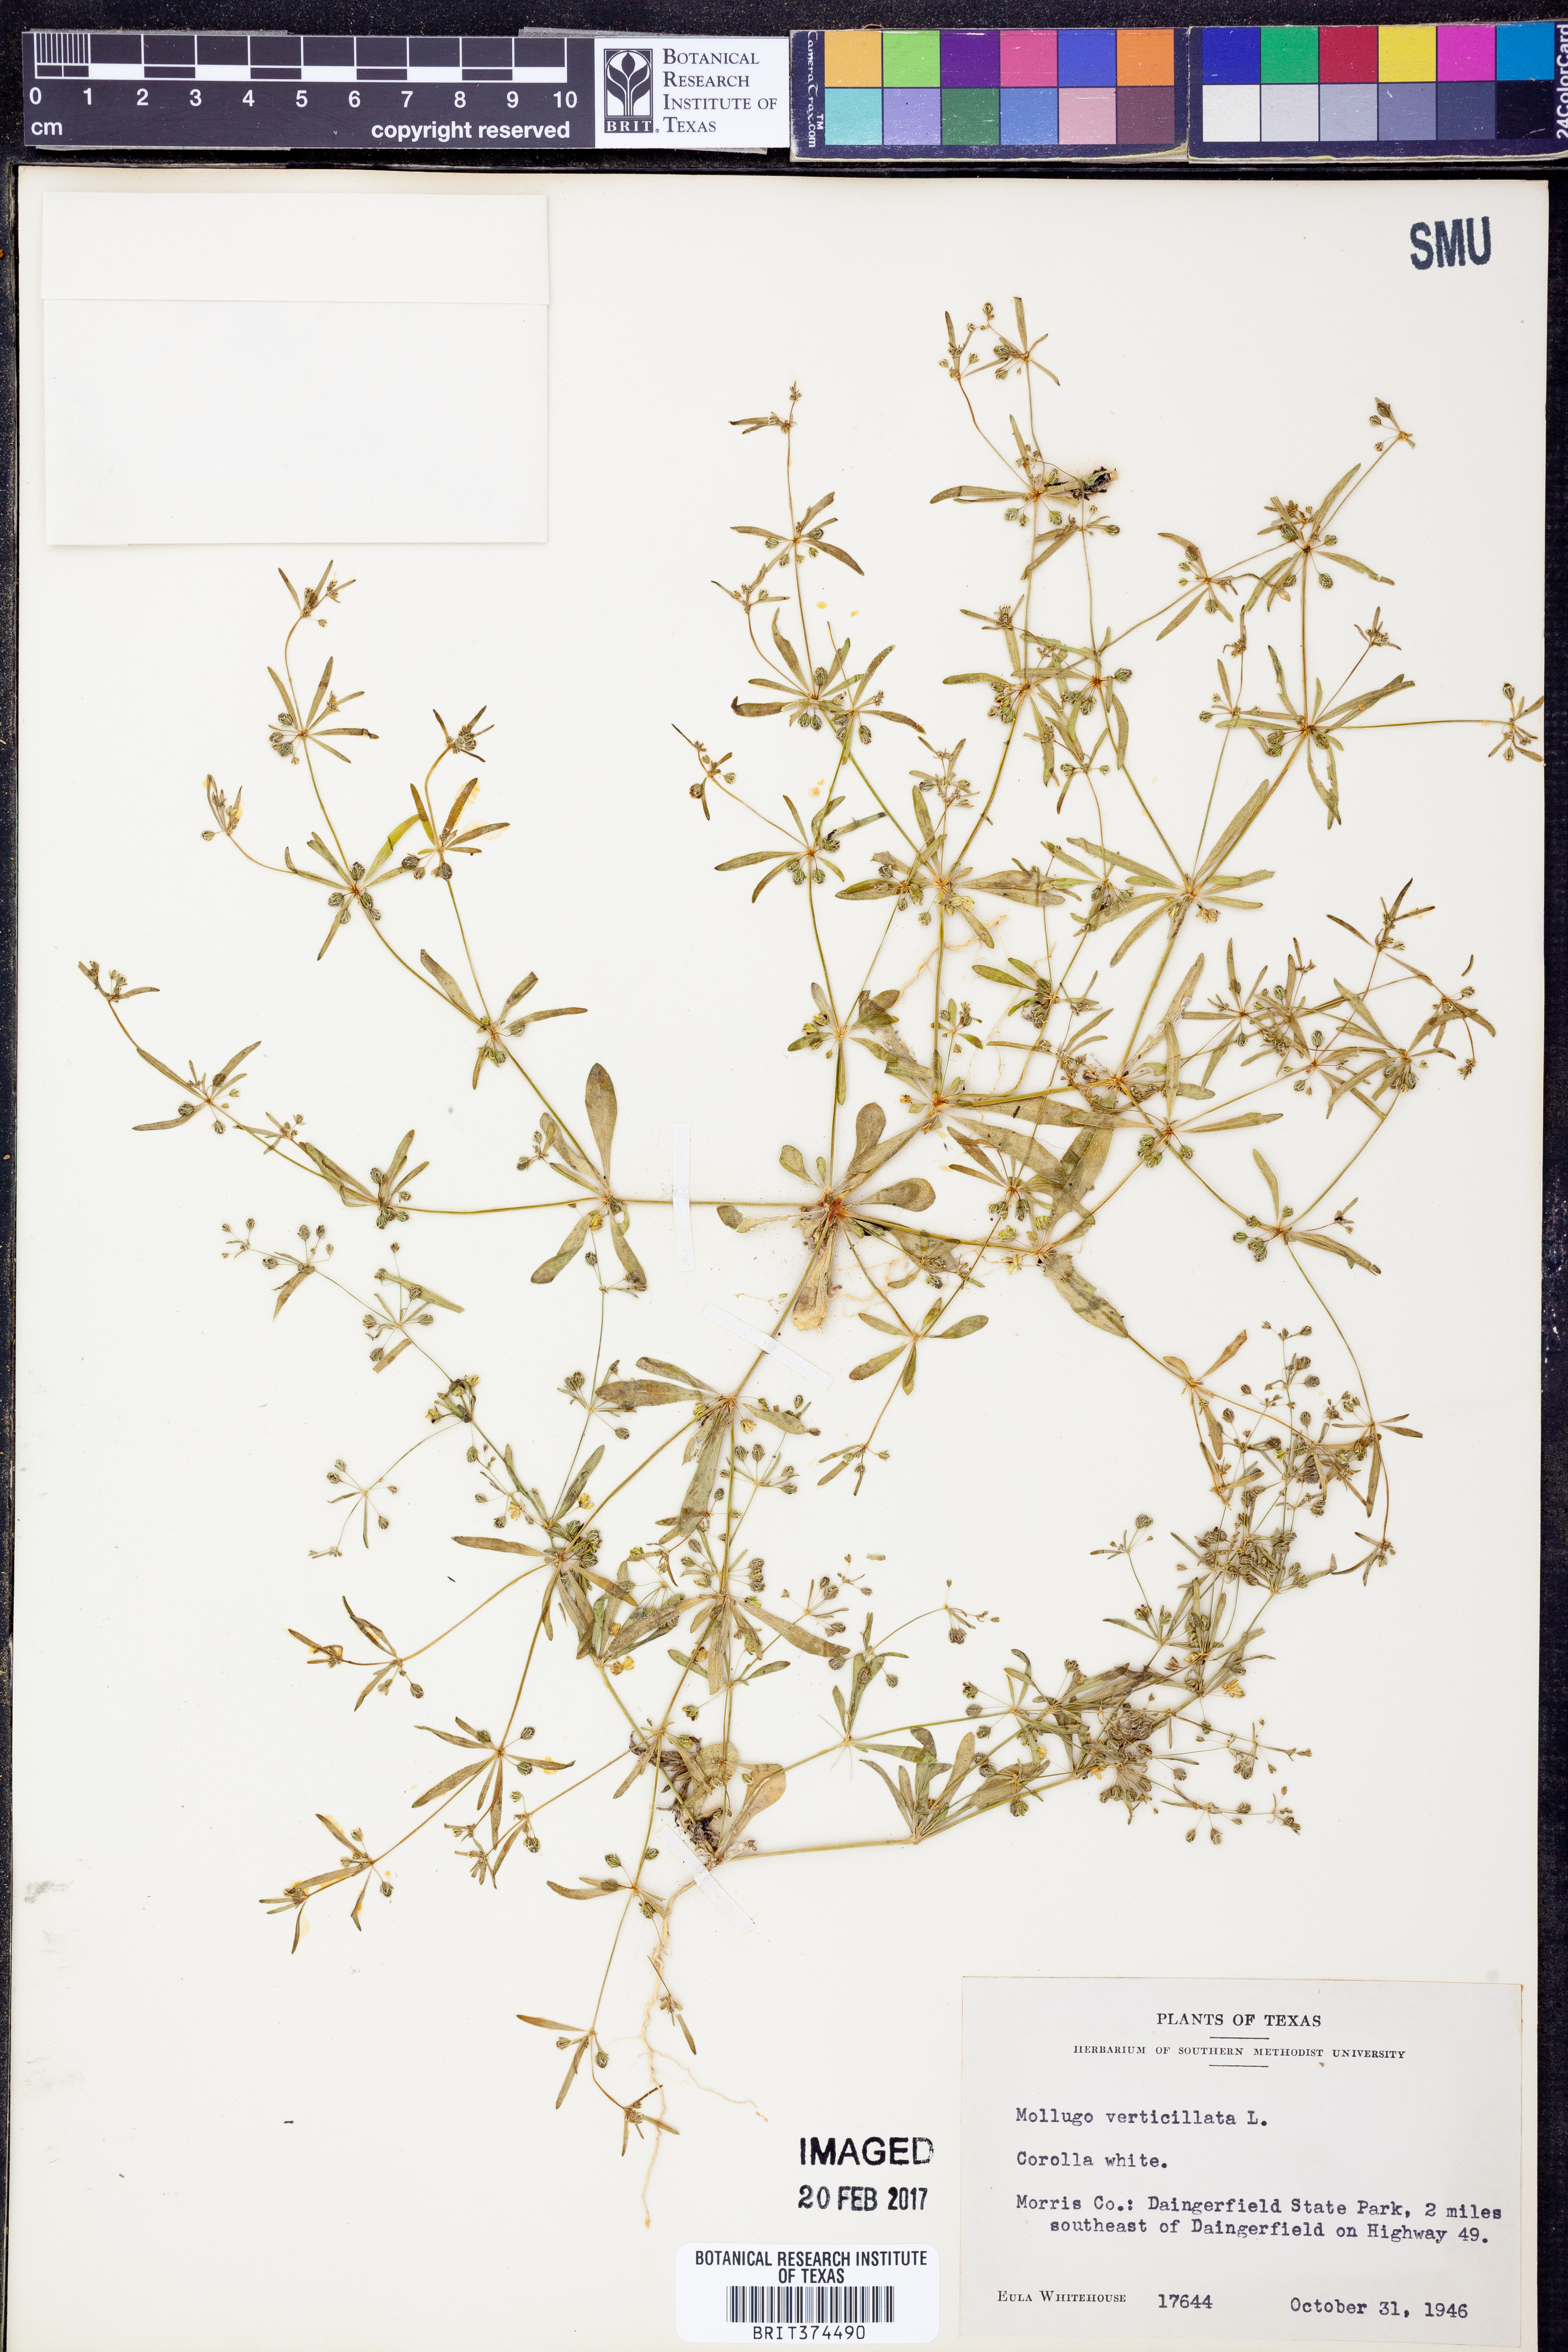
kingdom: Plantae
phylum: Tracheophyta
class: Magnoliopsida
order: Caryophyllales
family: Molluginaceae
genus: Mollugo
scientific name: Mollugo verticillata
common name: Green carpetweed
